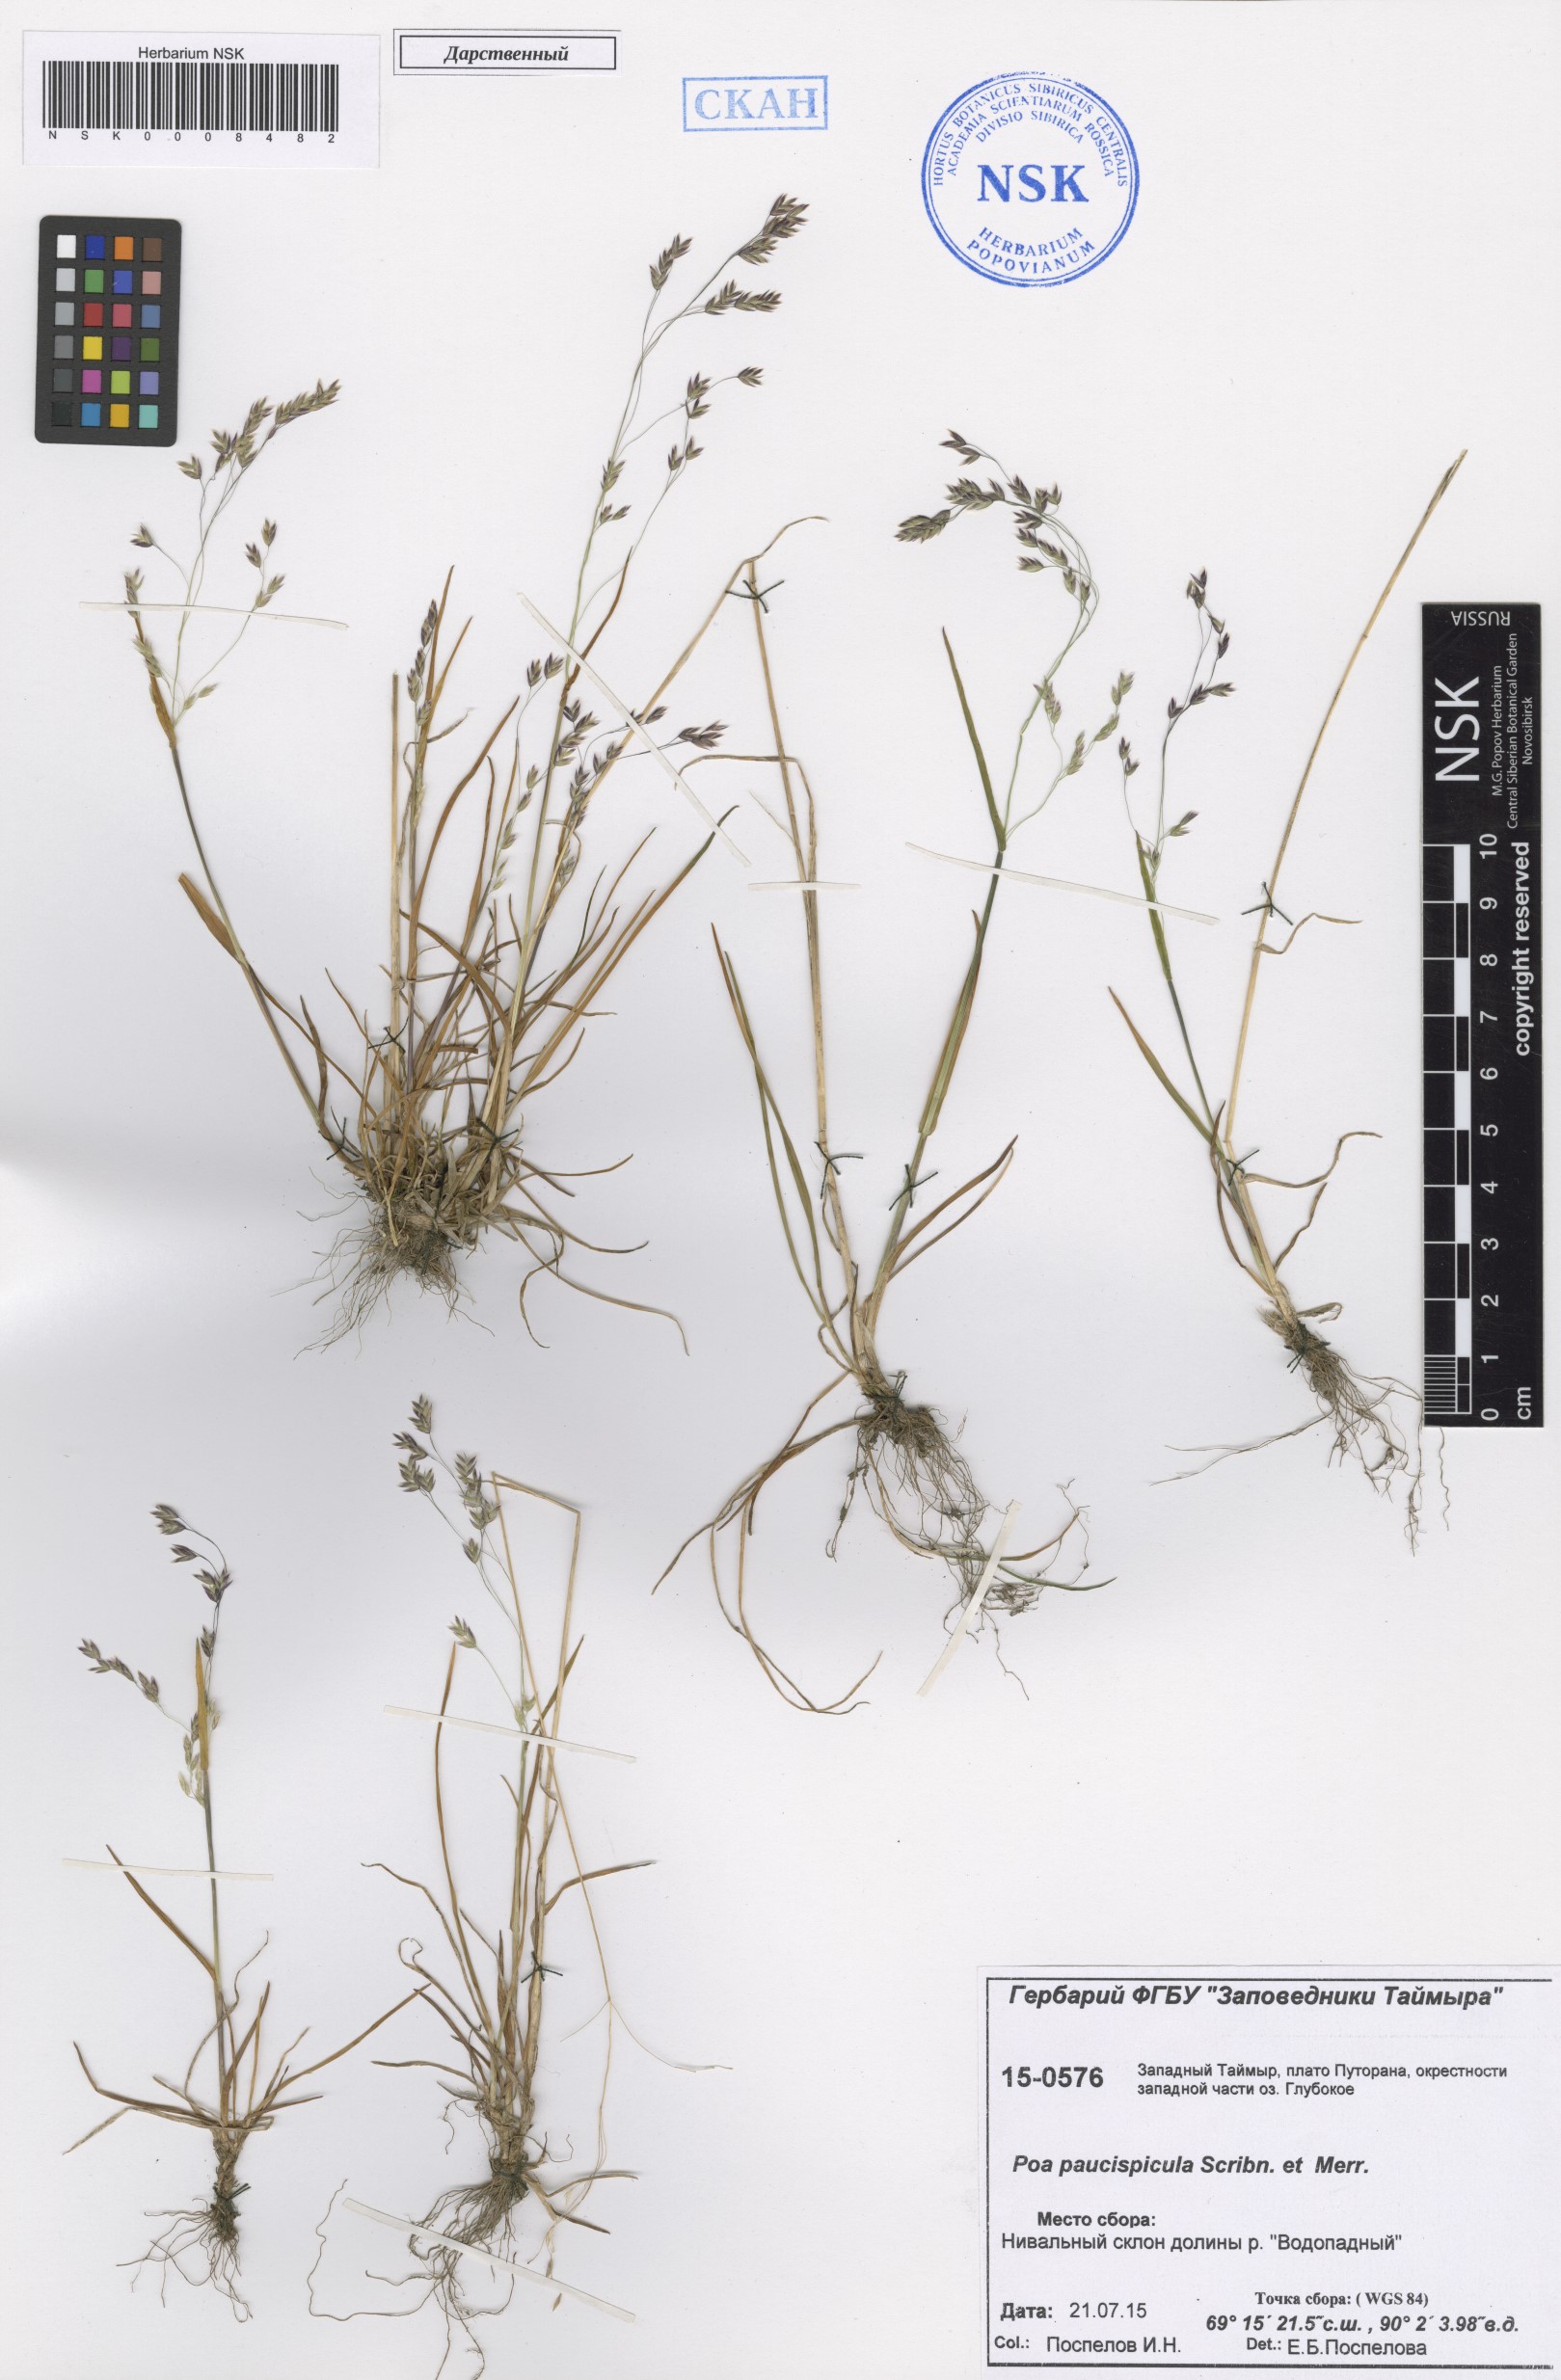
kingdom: Plantae
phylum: Tracheophyta
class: Liliopsida
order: Poales
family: Poaceae
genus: Poa
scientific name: Poa paucispicula
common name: Alaska bluegrass
